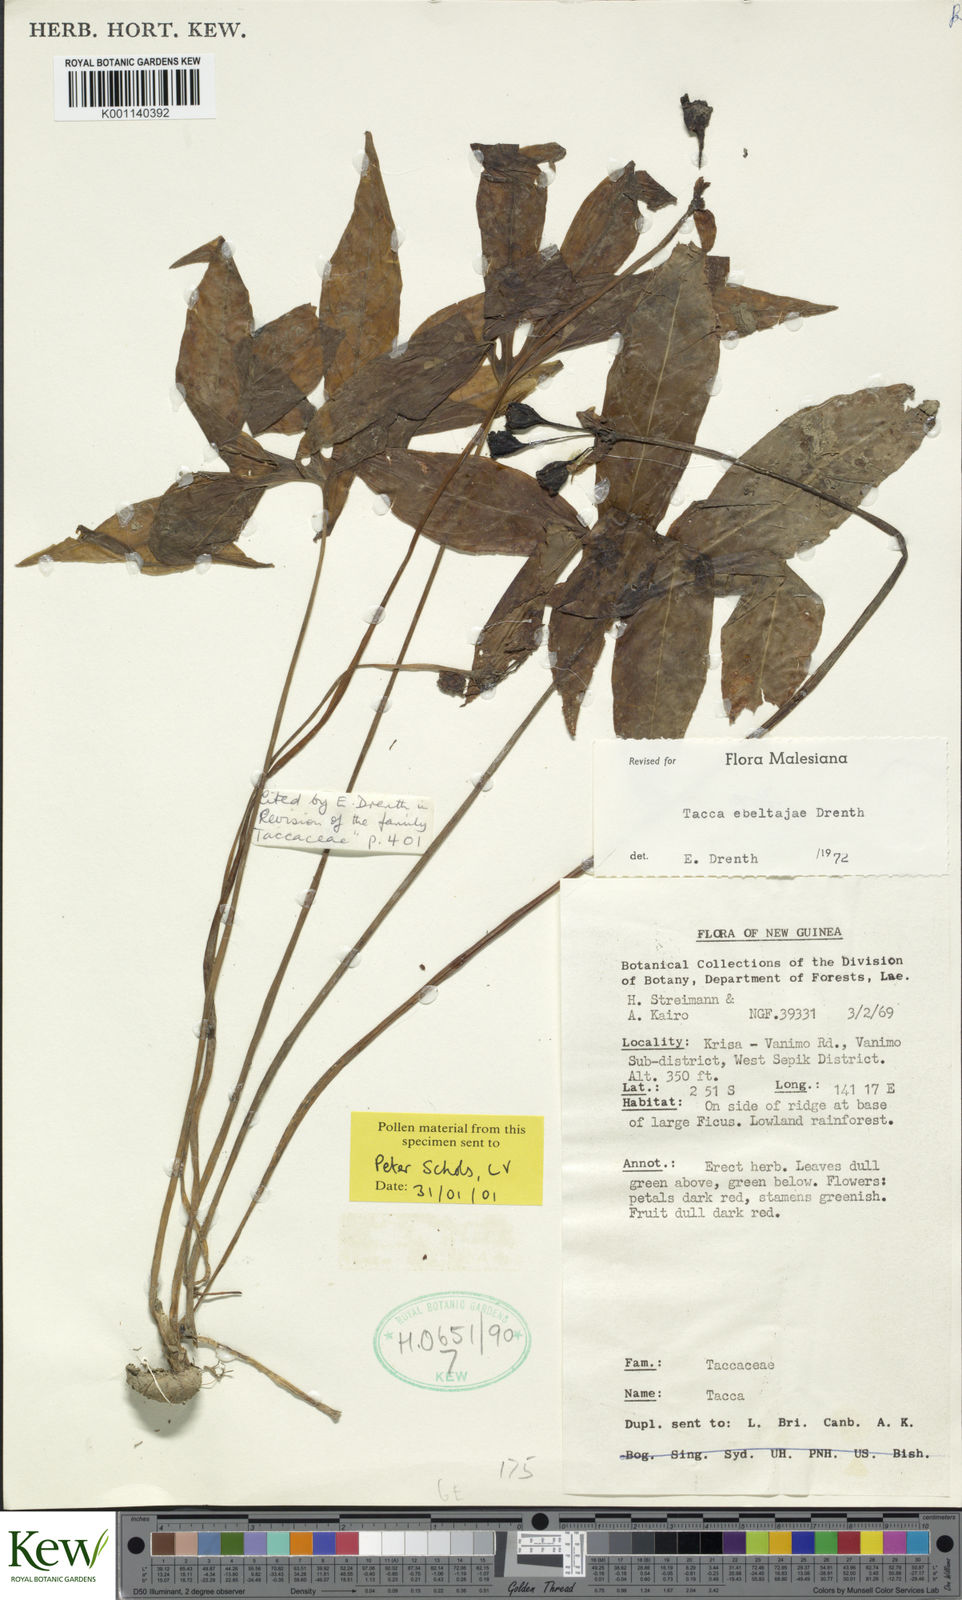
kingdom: Plantae
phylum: Tracheophyta
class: Liliopsida
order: Dioscoreales
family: Dioscoreaceae
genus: Tacca
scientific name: Tacca ebeltajae
